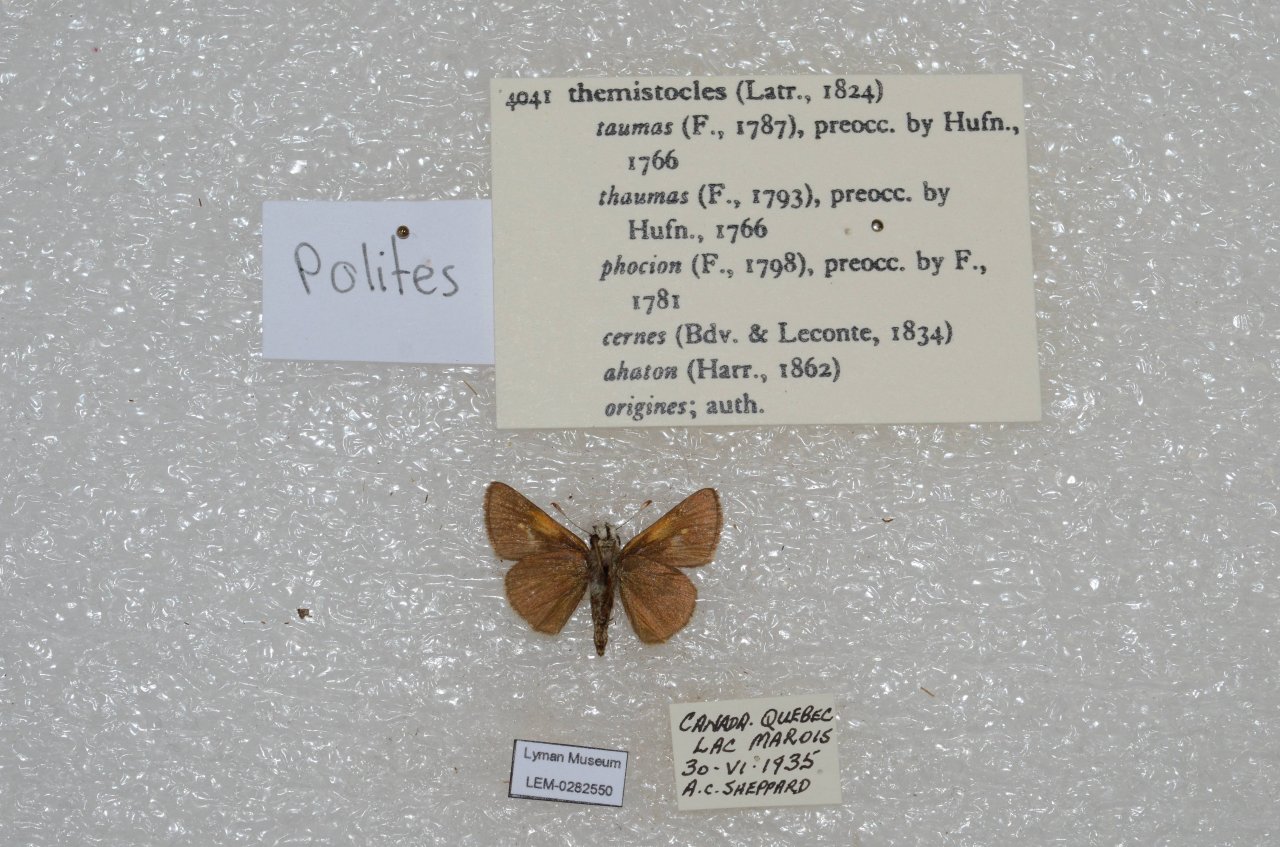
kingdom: Animalia
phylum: Arthropoda
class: Insecta
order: Lepidoptera
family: Hesperiidae
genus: Polites
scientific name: Polites themistocles
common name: Tawny-edged Skipper
